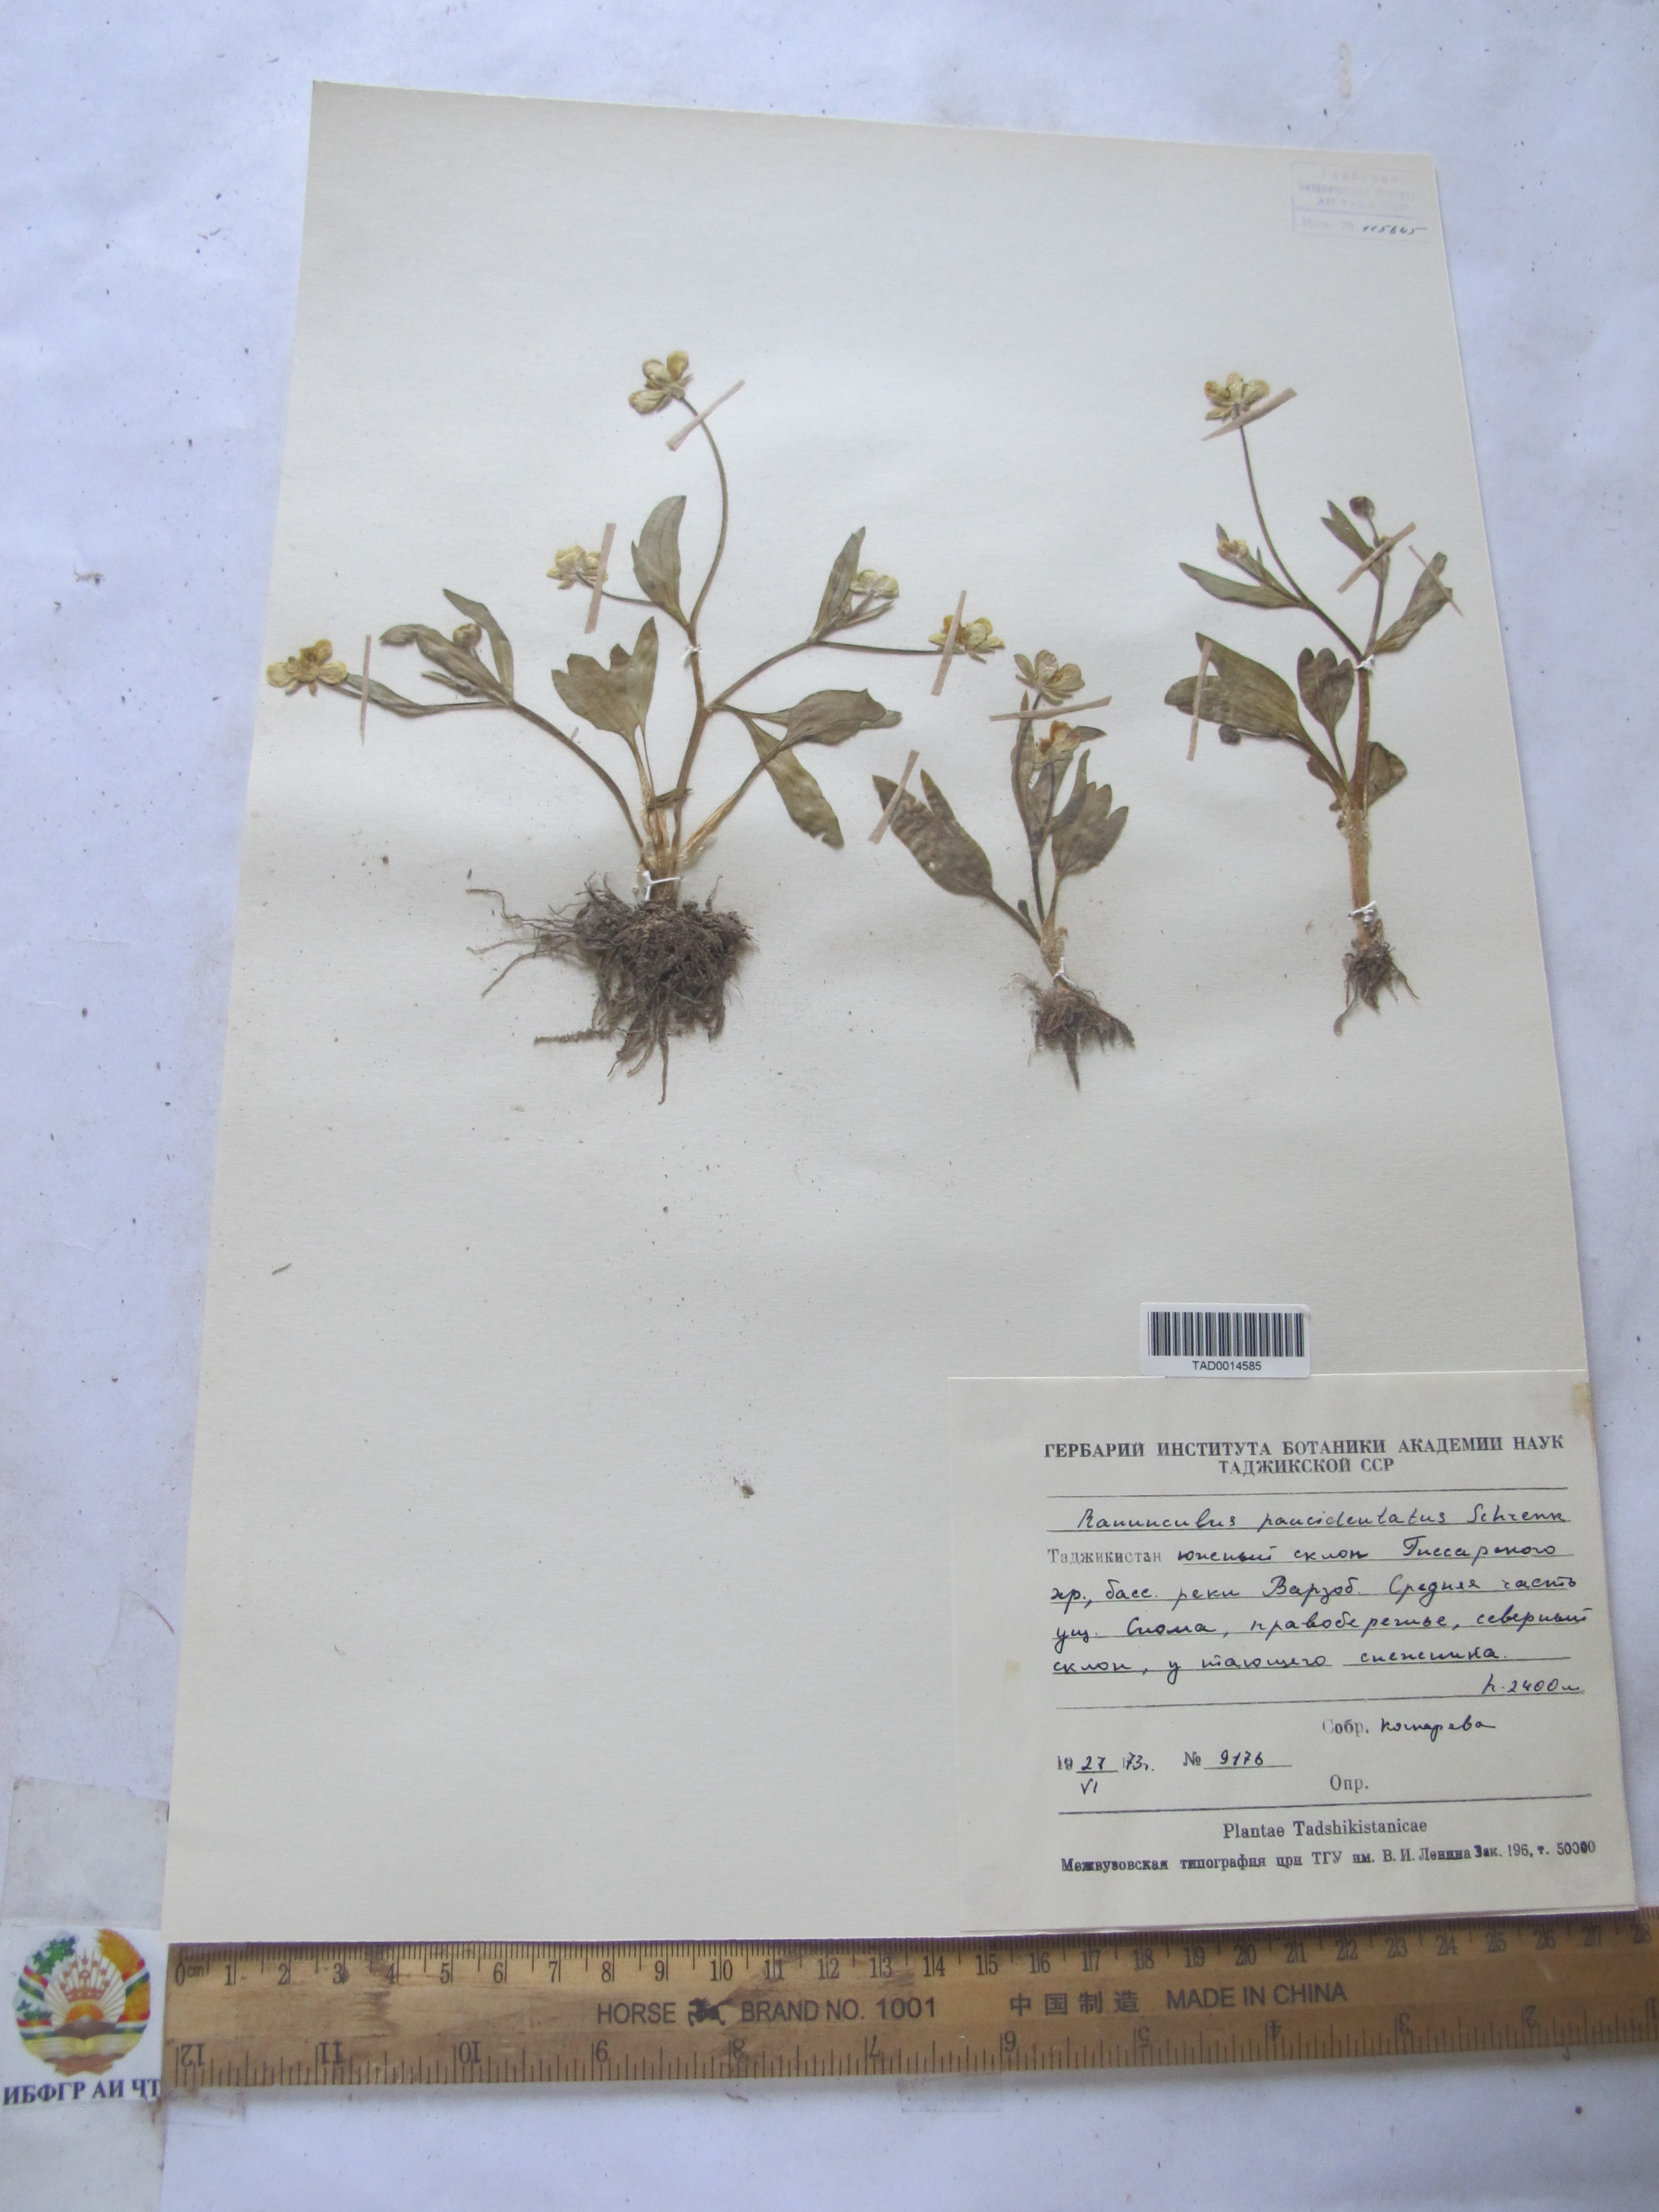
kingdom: Plantae
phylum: Tracheophyta
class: Magnoliopsida
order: Ranunculales
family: Ranunculaceae
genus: Ranunculus
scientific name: Ranunculus paucidentatus
